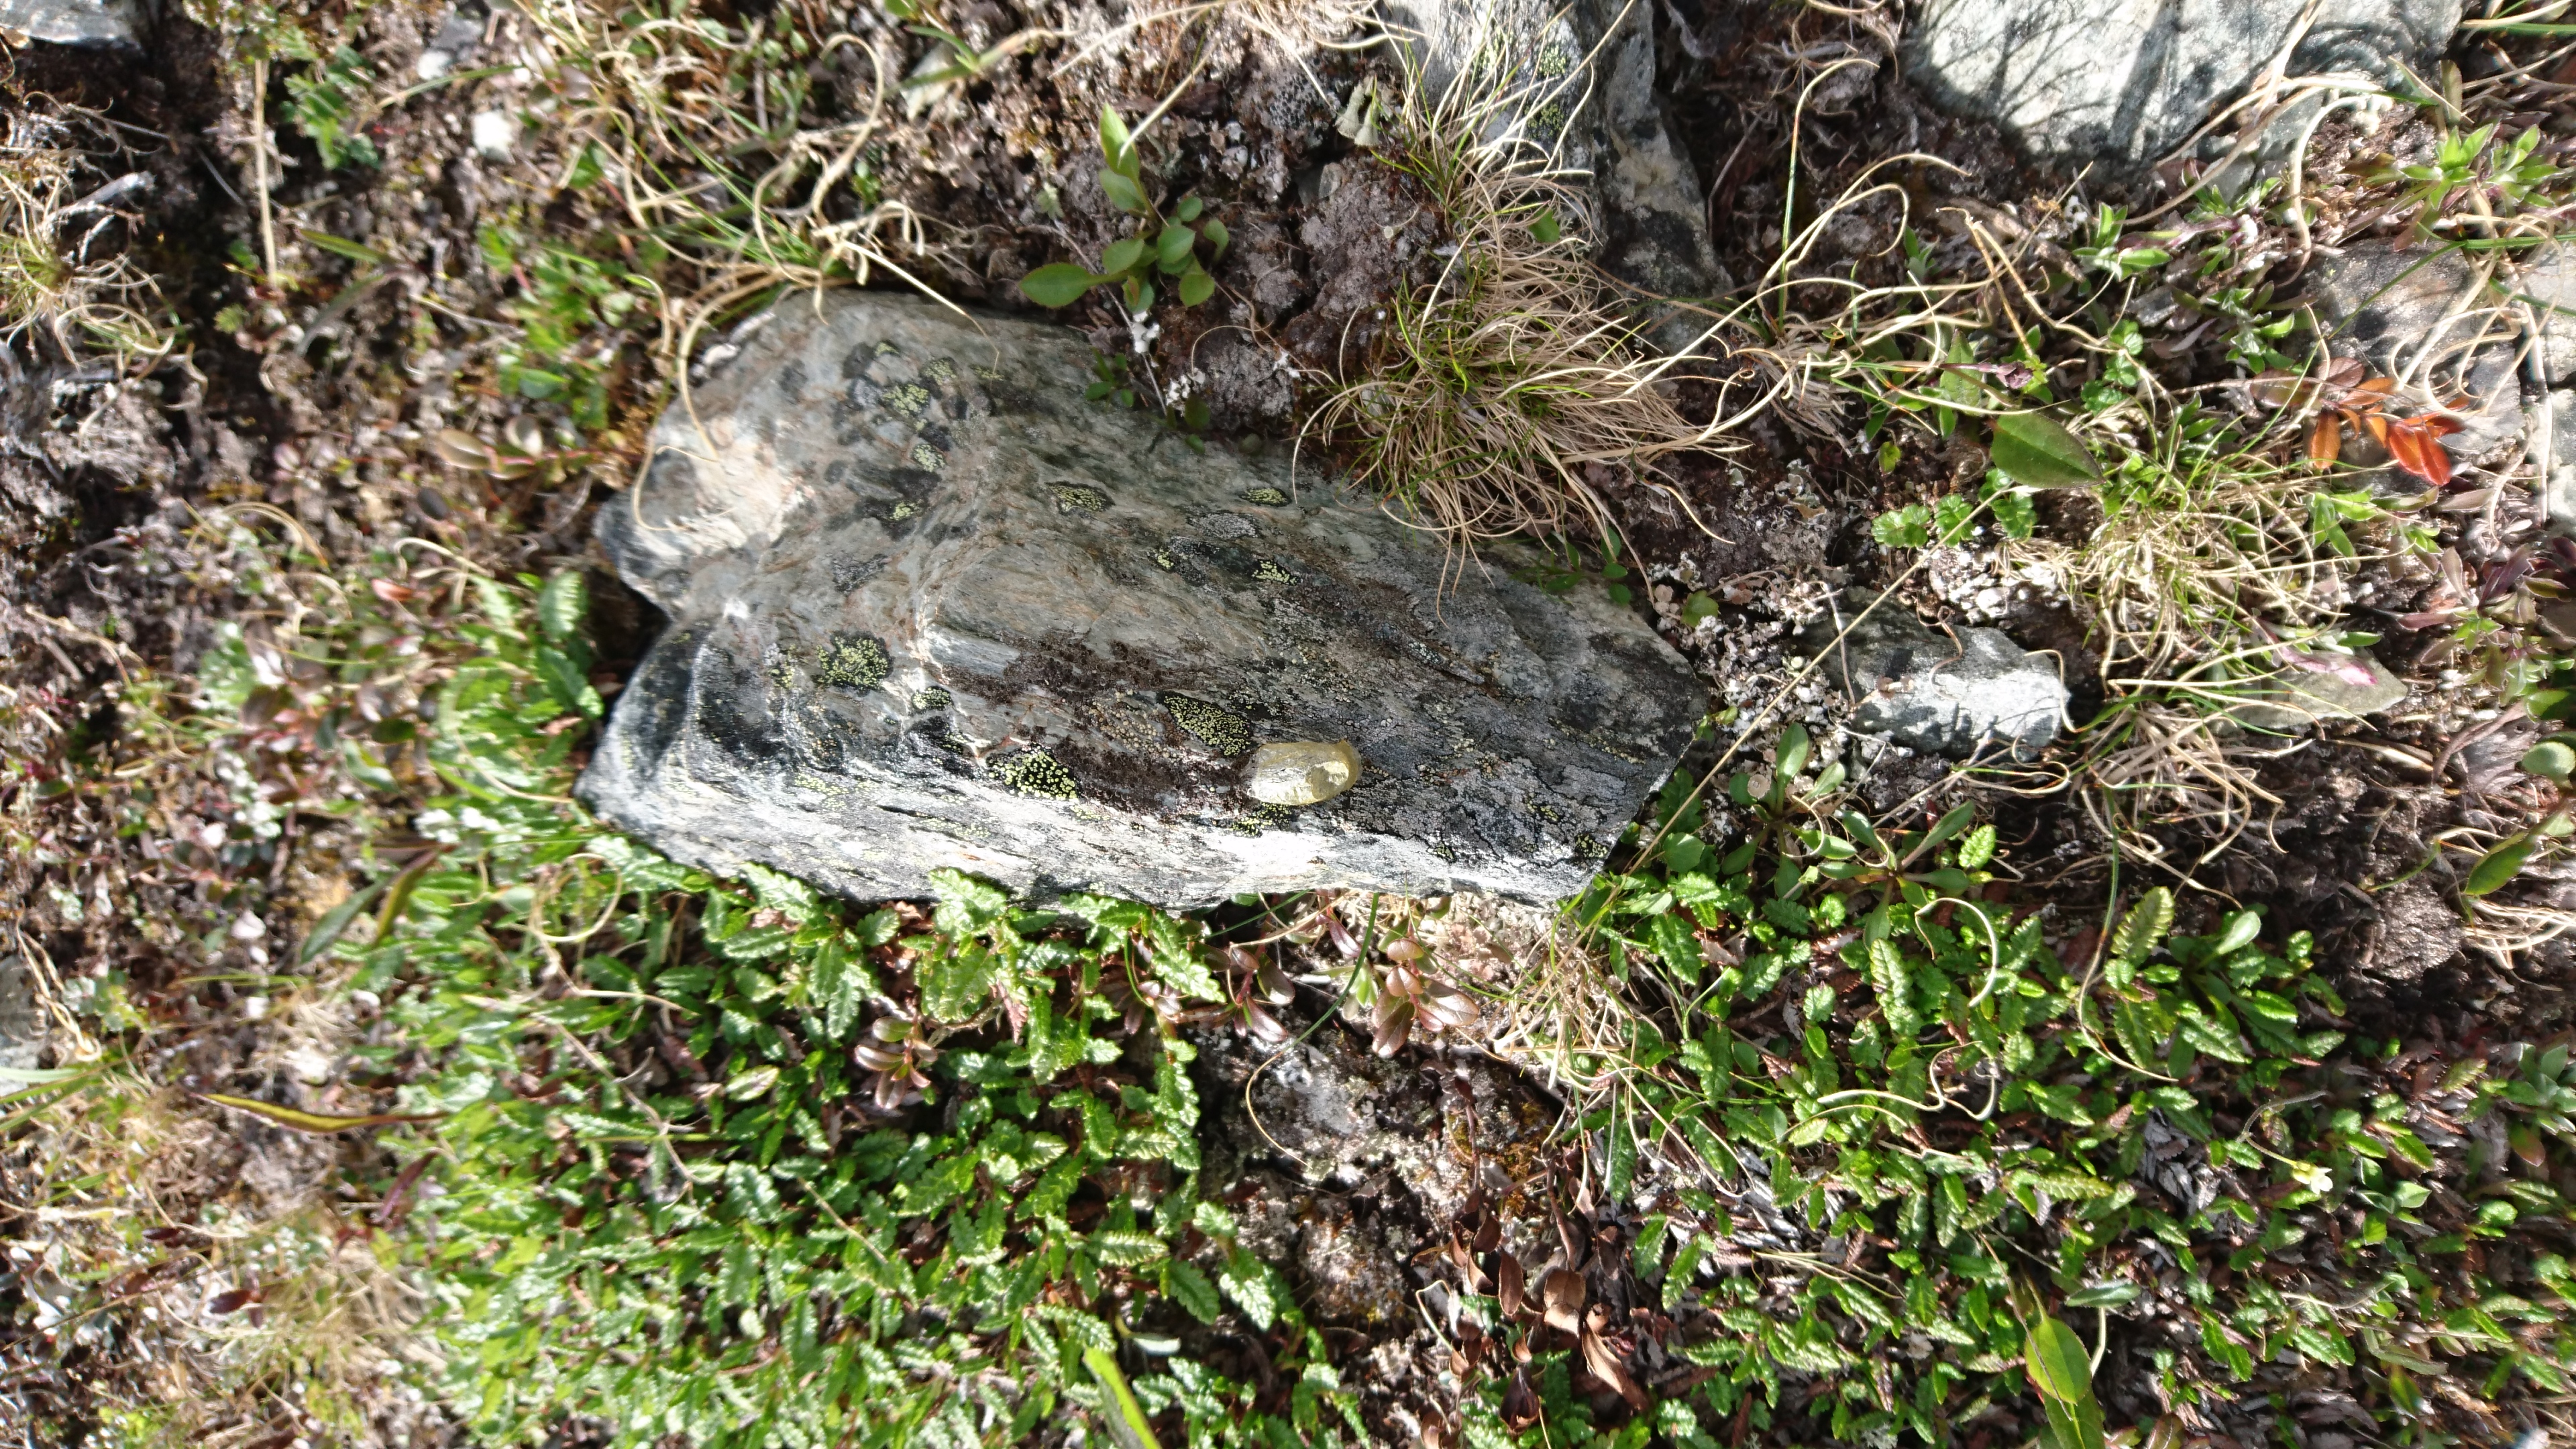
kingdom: Animalia
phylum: Arthropoda
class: Insecta
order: Lepidoptera
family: Zygaenidae
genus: Zygaena
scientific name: Zygaena exulans
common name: Scotch burnet
